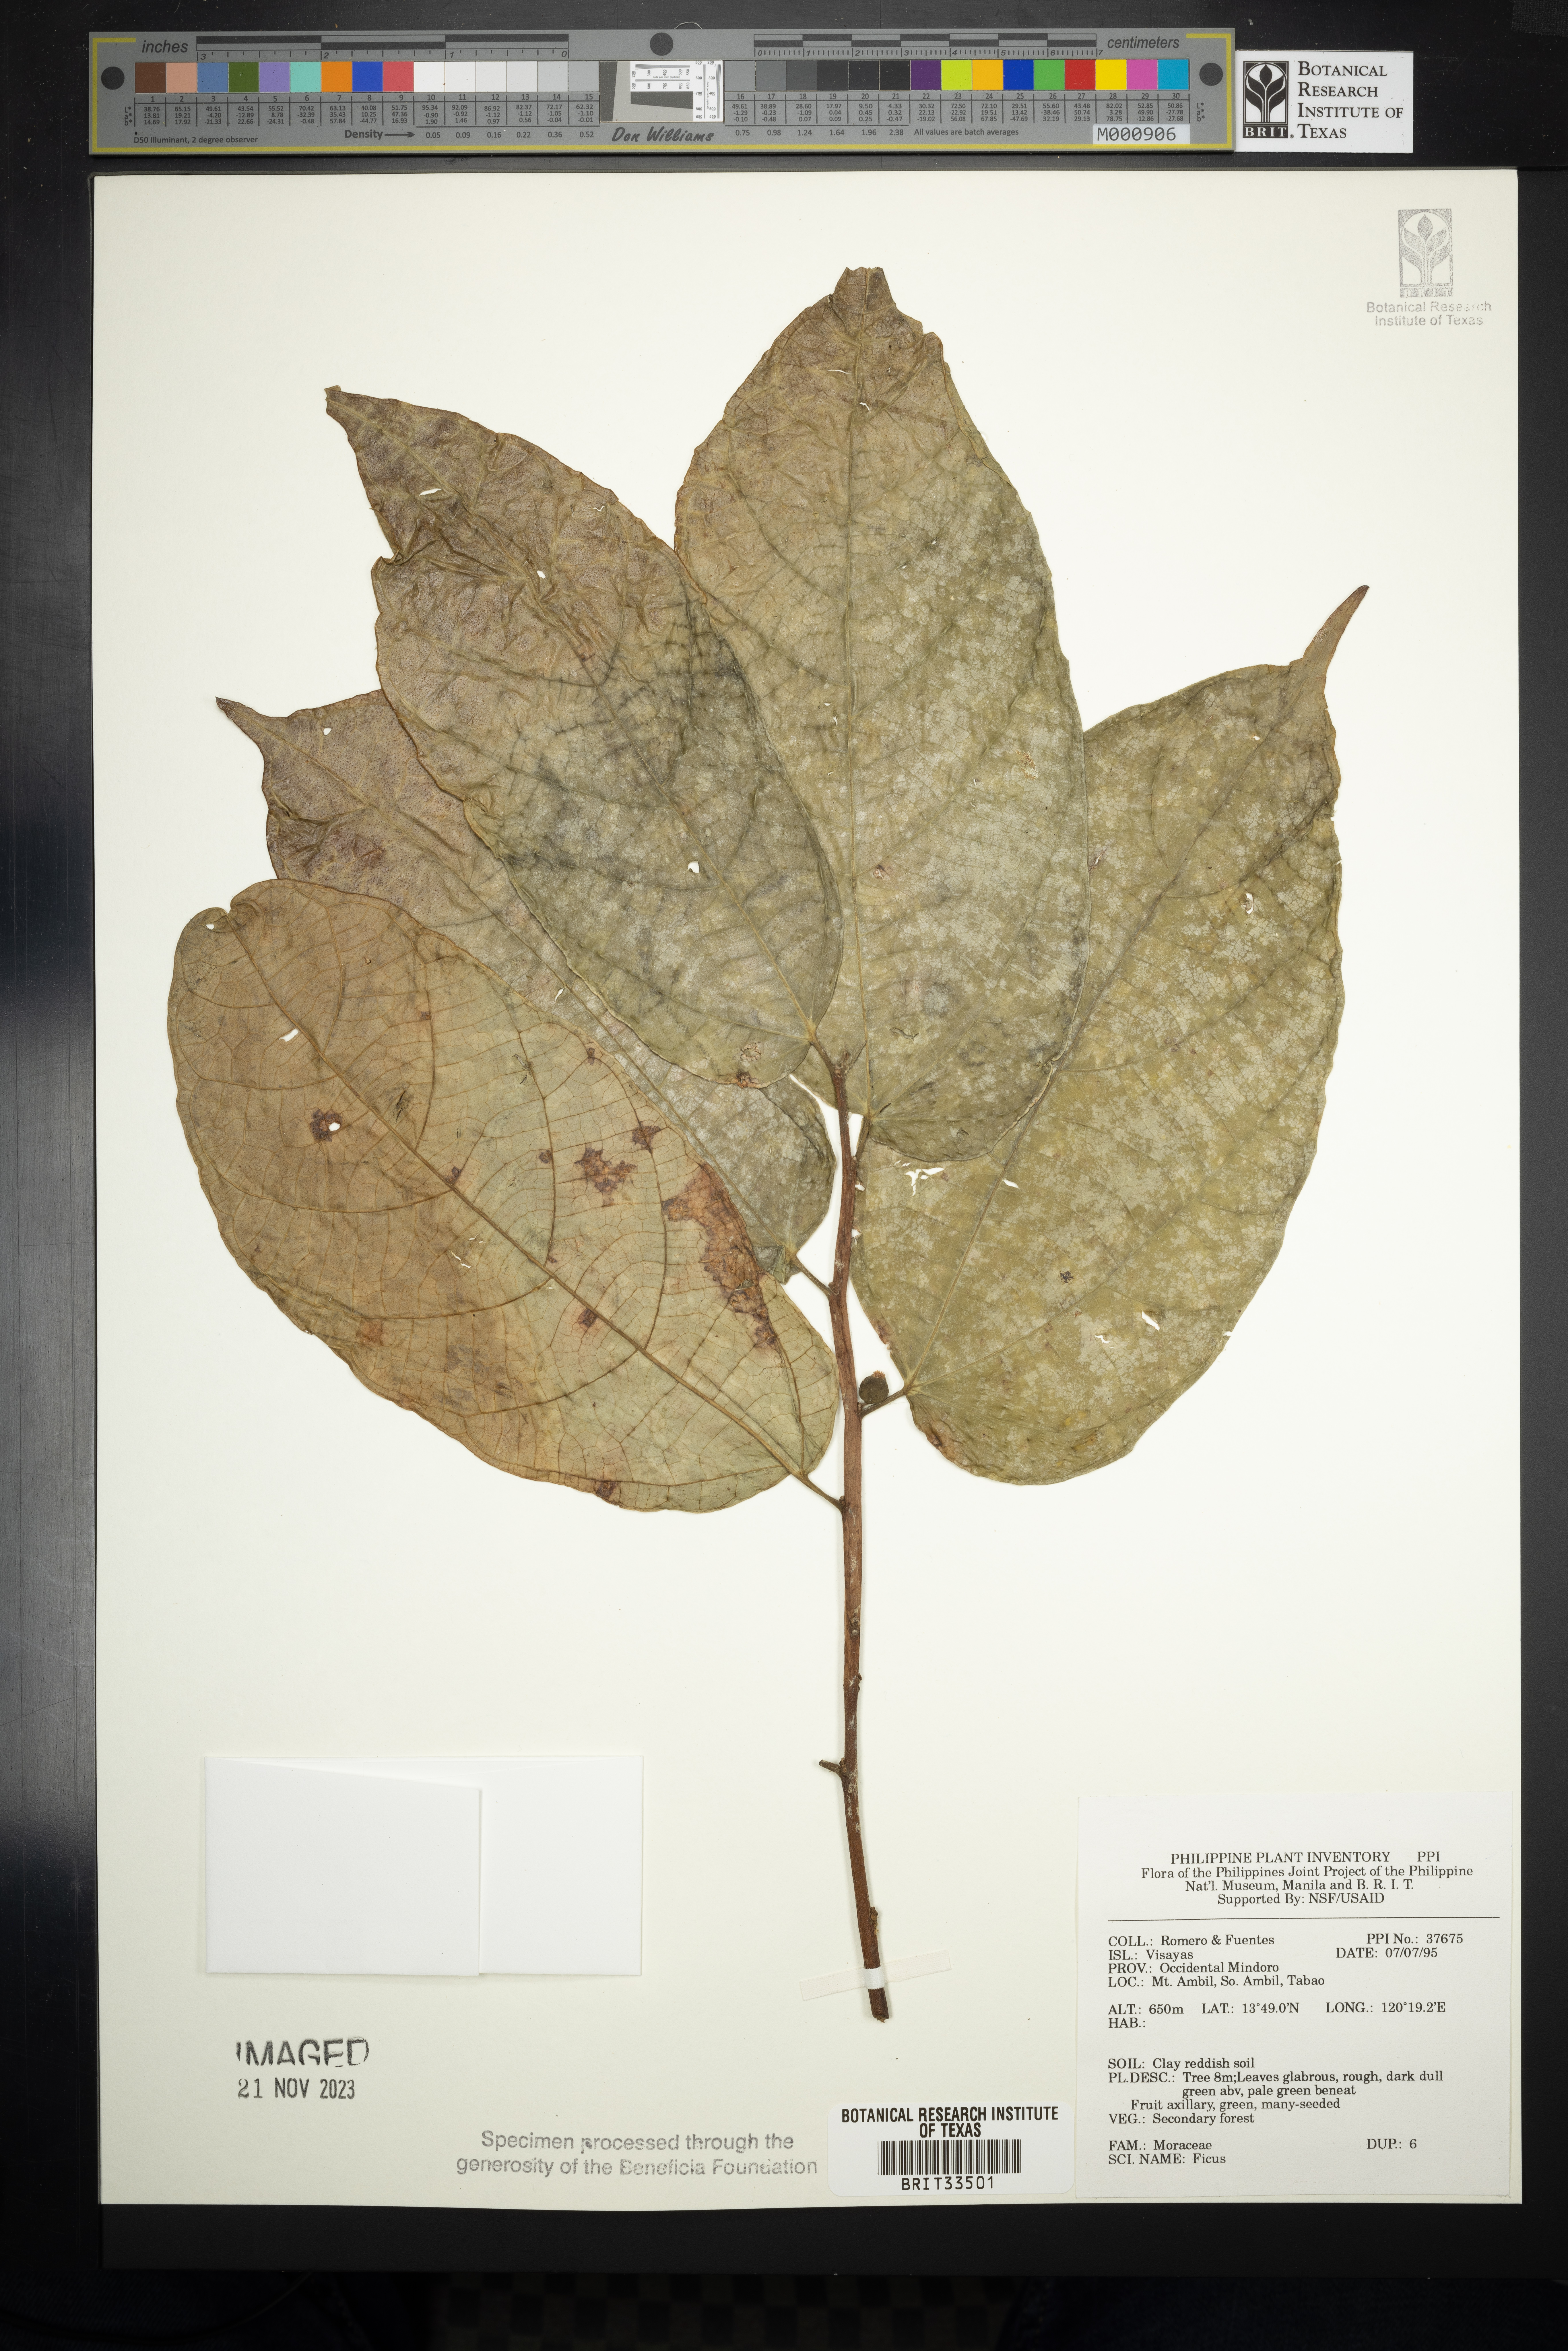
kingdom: Plantae
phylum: Tracheophyta
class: Magnoliopsida
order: Rosales
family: Moraceae
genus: Ficus
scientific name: Ficus
